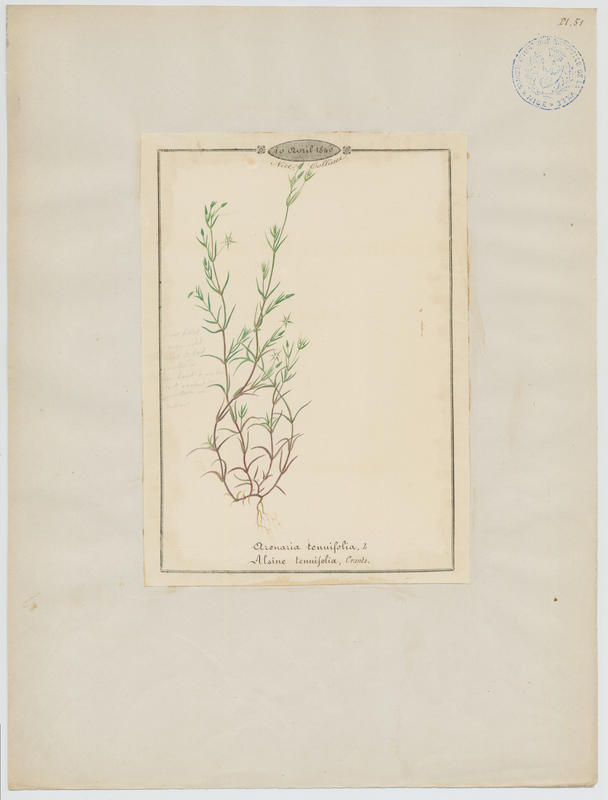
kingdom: Plantae
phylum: Tracheophyta
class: Magnoliopsida
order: Caryophyllales
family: Caryophyllaceae
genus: Sabulina
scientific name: Sabulina tenuifolia
